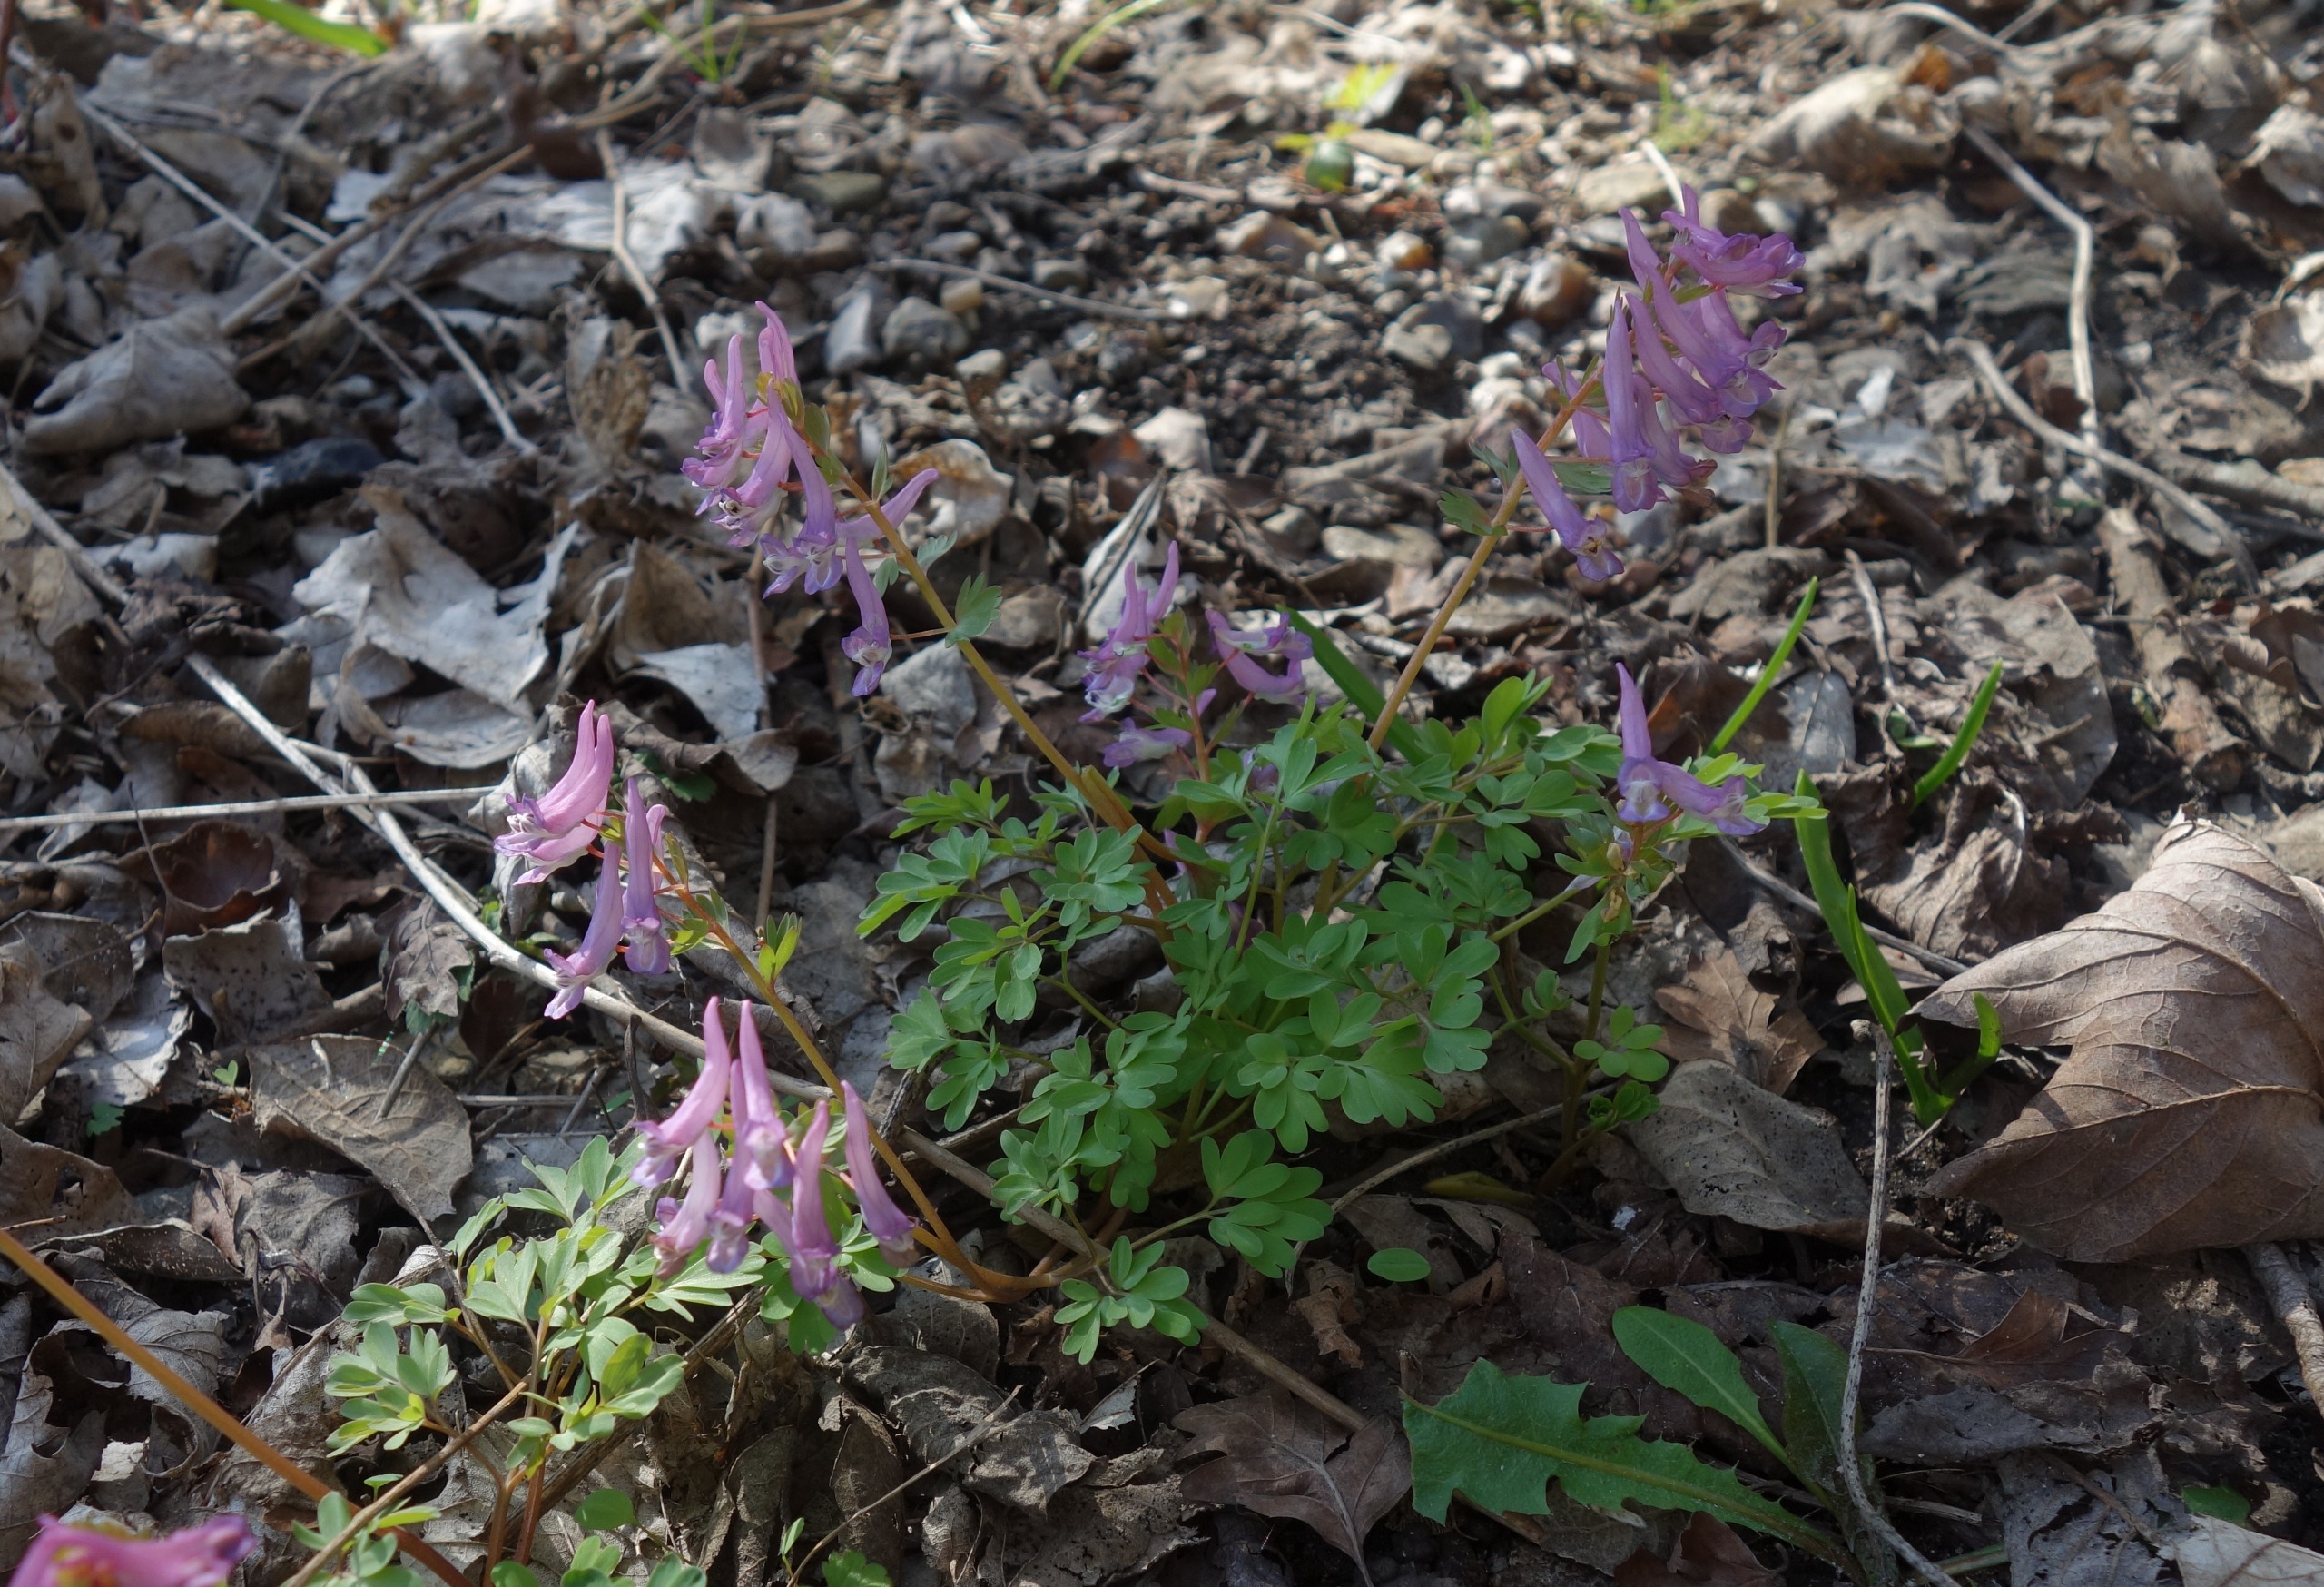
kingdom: Plantae
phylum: Tracheophyta
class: Magnoliopsida
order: Ranunculales
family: Papaveraceae
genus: Corydalis
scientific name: Corydalis solida
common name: Langstilket lærkespore
